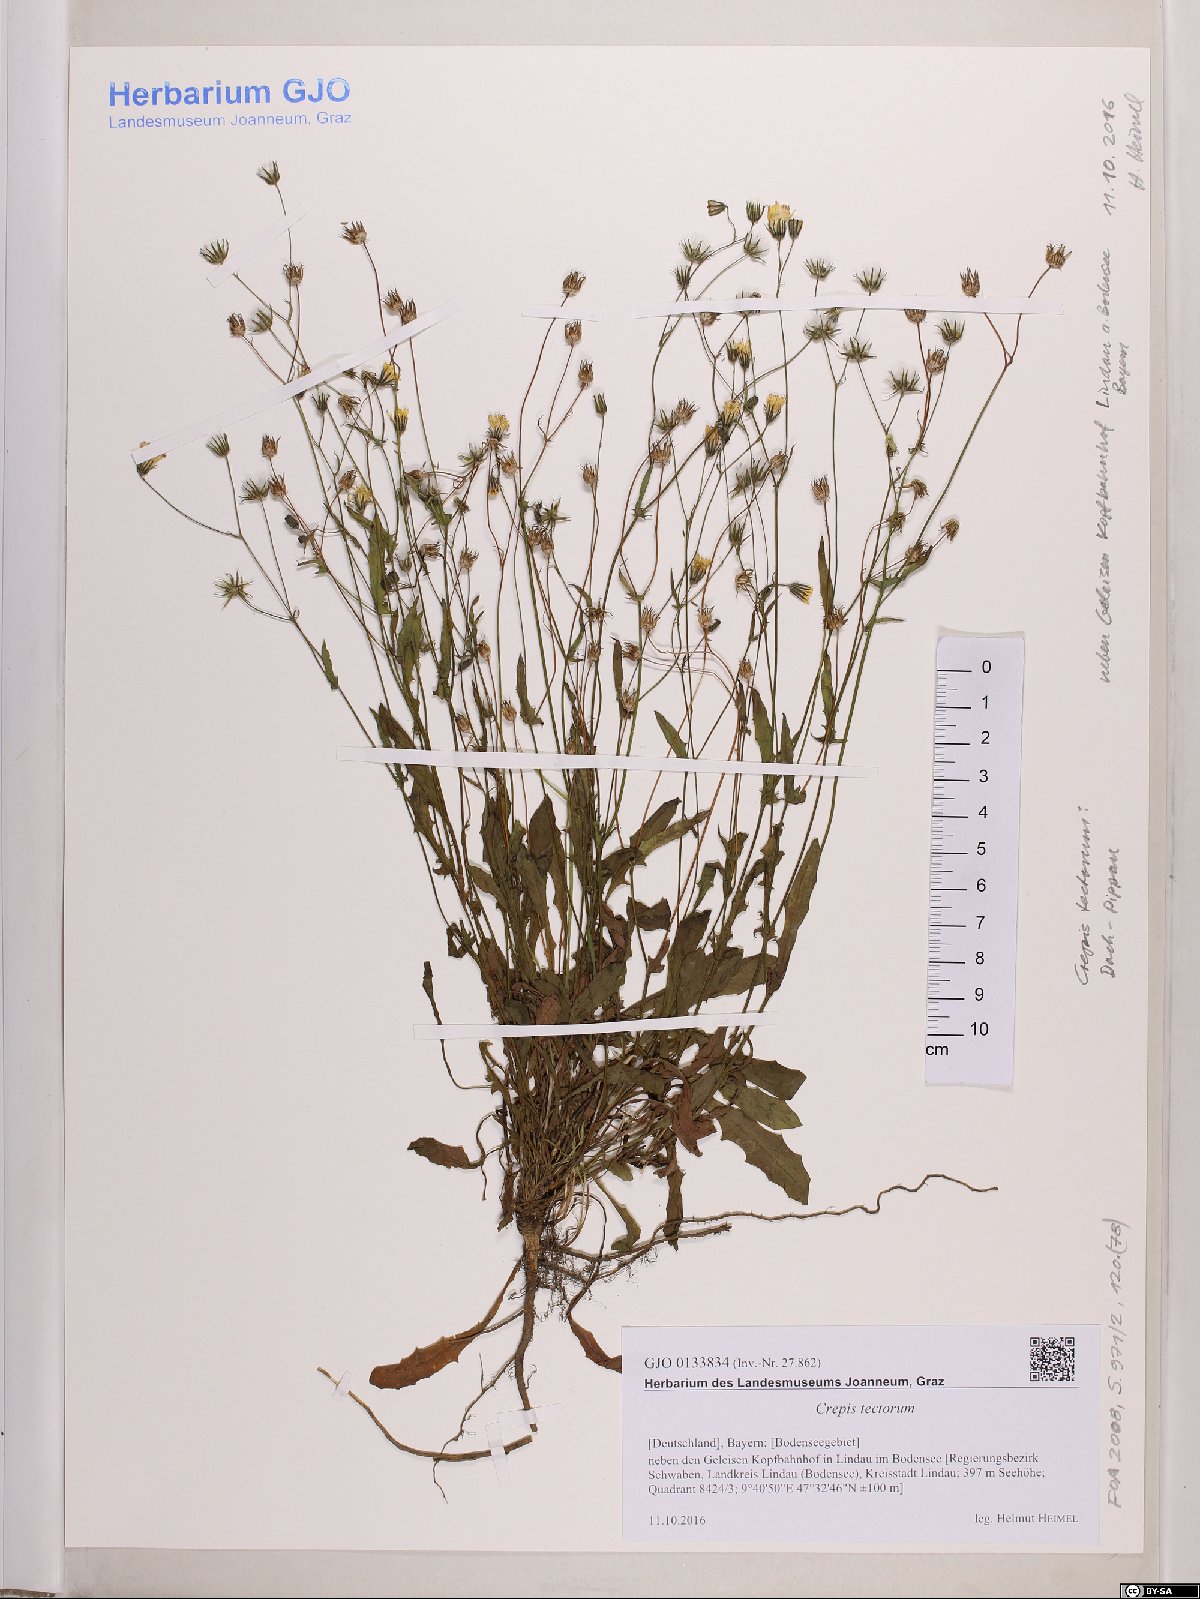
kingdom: Plantae
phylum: Tracheophyta
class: Magnoliopsida
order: Asterales
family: Asteraceae
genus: Crepis
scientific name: Crepis tectorum
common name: Narrow-leaved hawk's-beard
